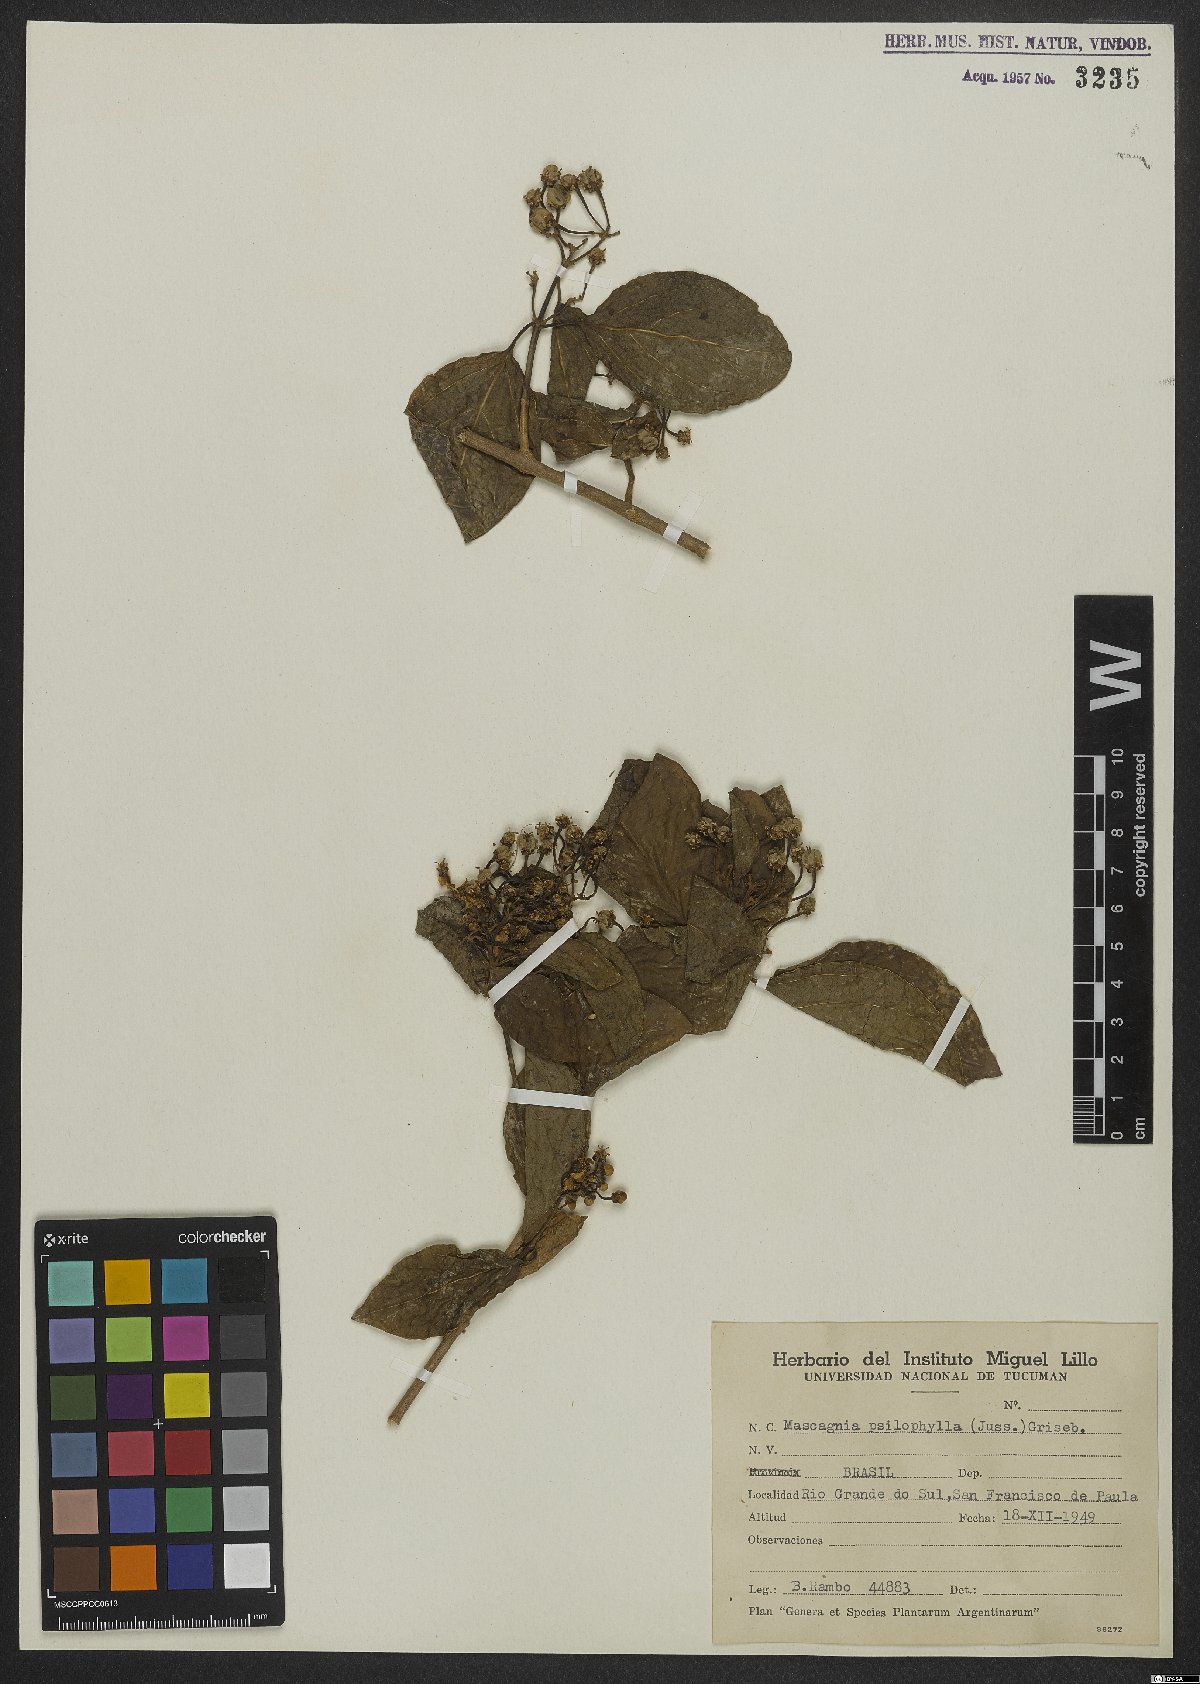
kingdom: Plantae
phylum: Tracheophyta
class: Magnoliopsida
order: Malpighiales
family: Malpighiaceae
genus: Callaeum
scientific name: Callaeum psilophyllum
